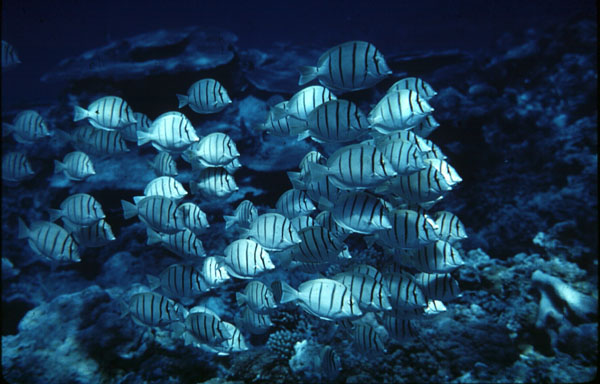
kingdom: Animalia
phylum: Chordata
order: Perciformes
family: Acanthuridae
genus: Acanthurus
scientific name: Acanthurus triostegus
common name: Convict surgeonfish
